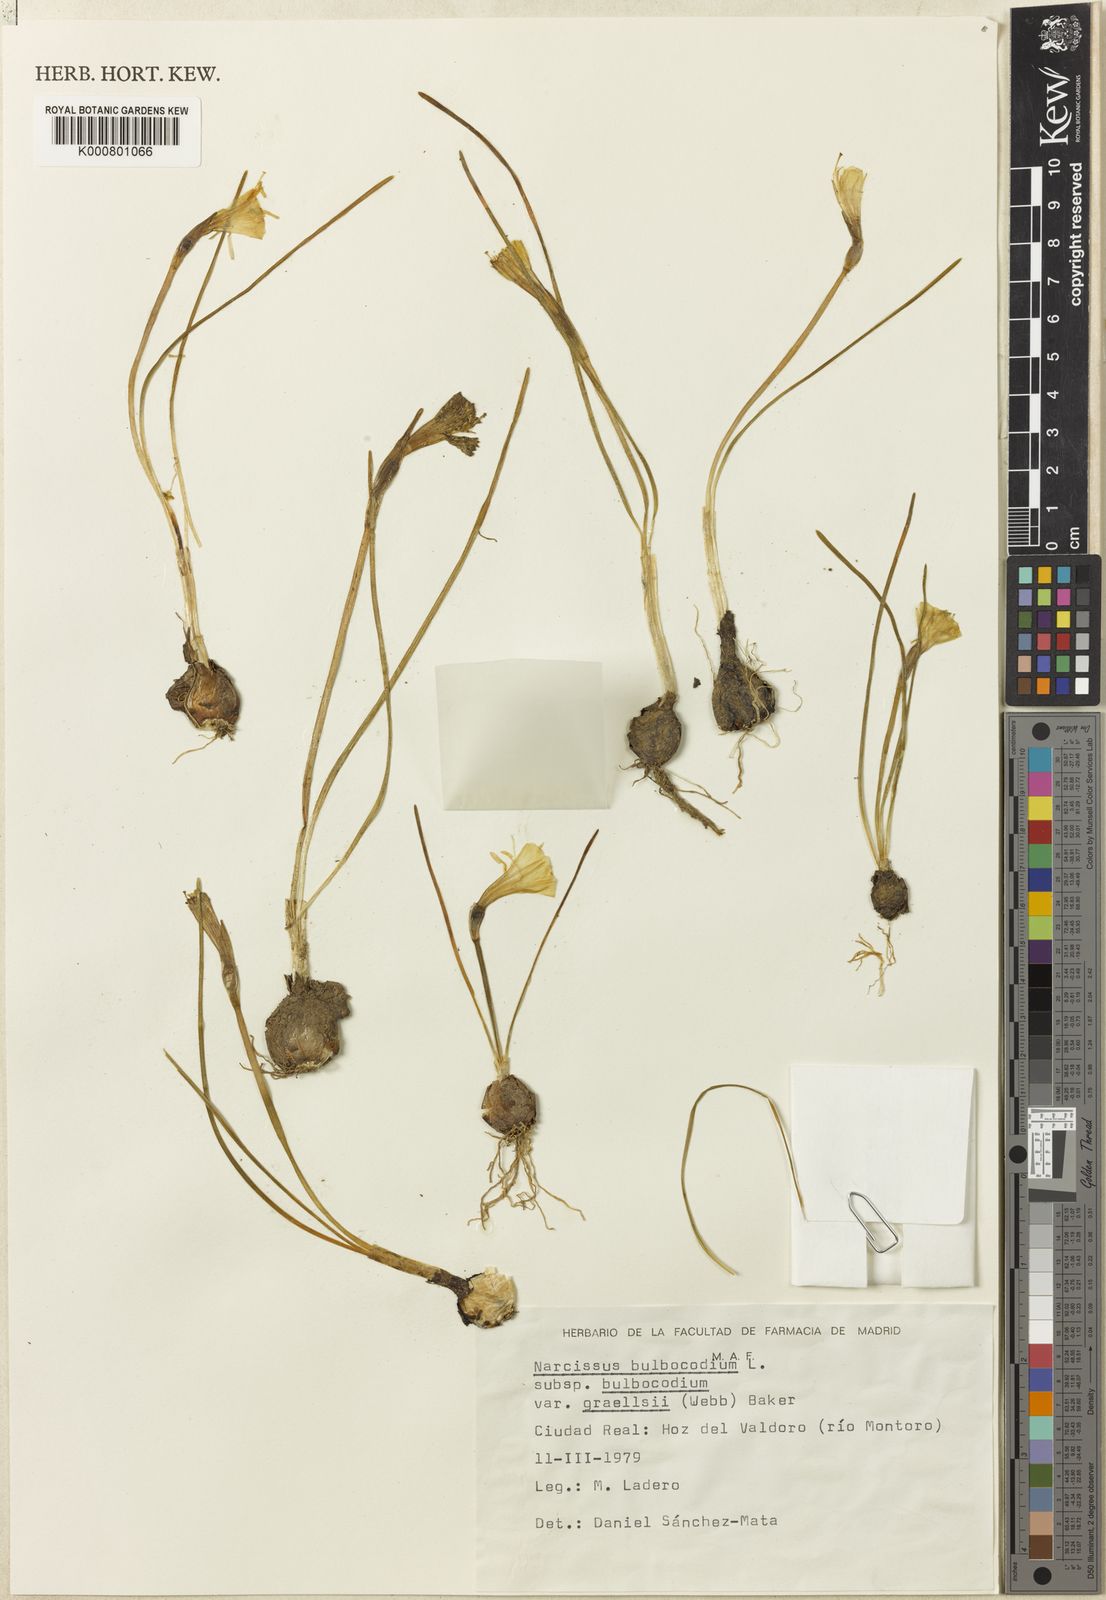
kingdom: Plantae
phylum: Tracheophyta
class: Liliopsida
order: Asparagales
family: Amaryllidaceae
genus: Narcissus
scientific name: Narcissus bulbocodium
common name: Hoop-petticoat daffodil
